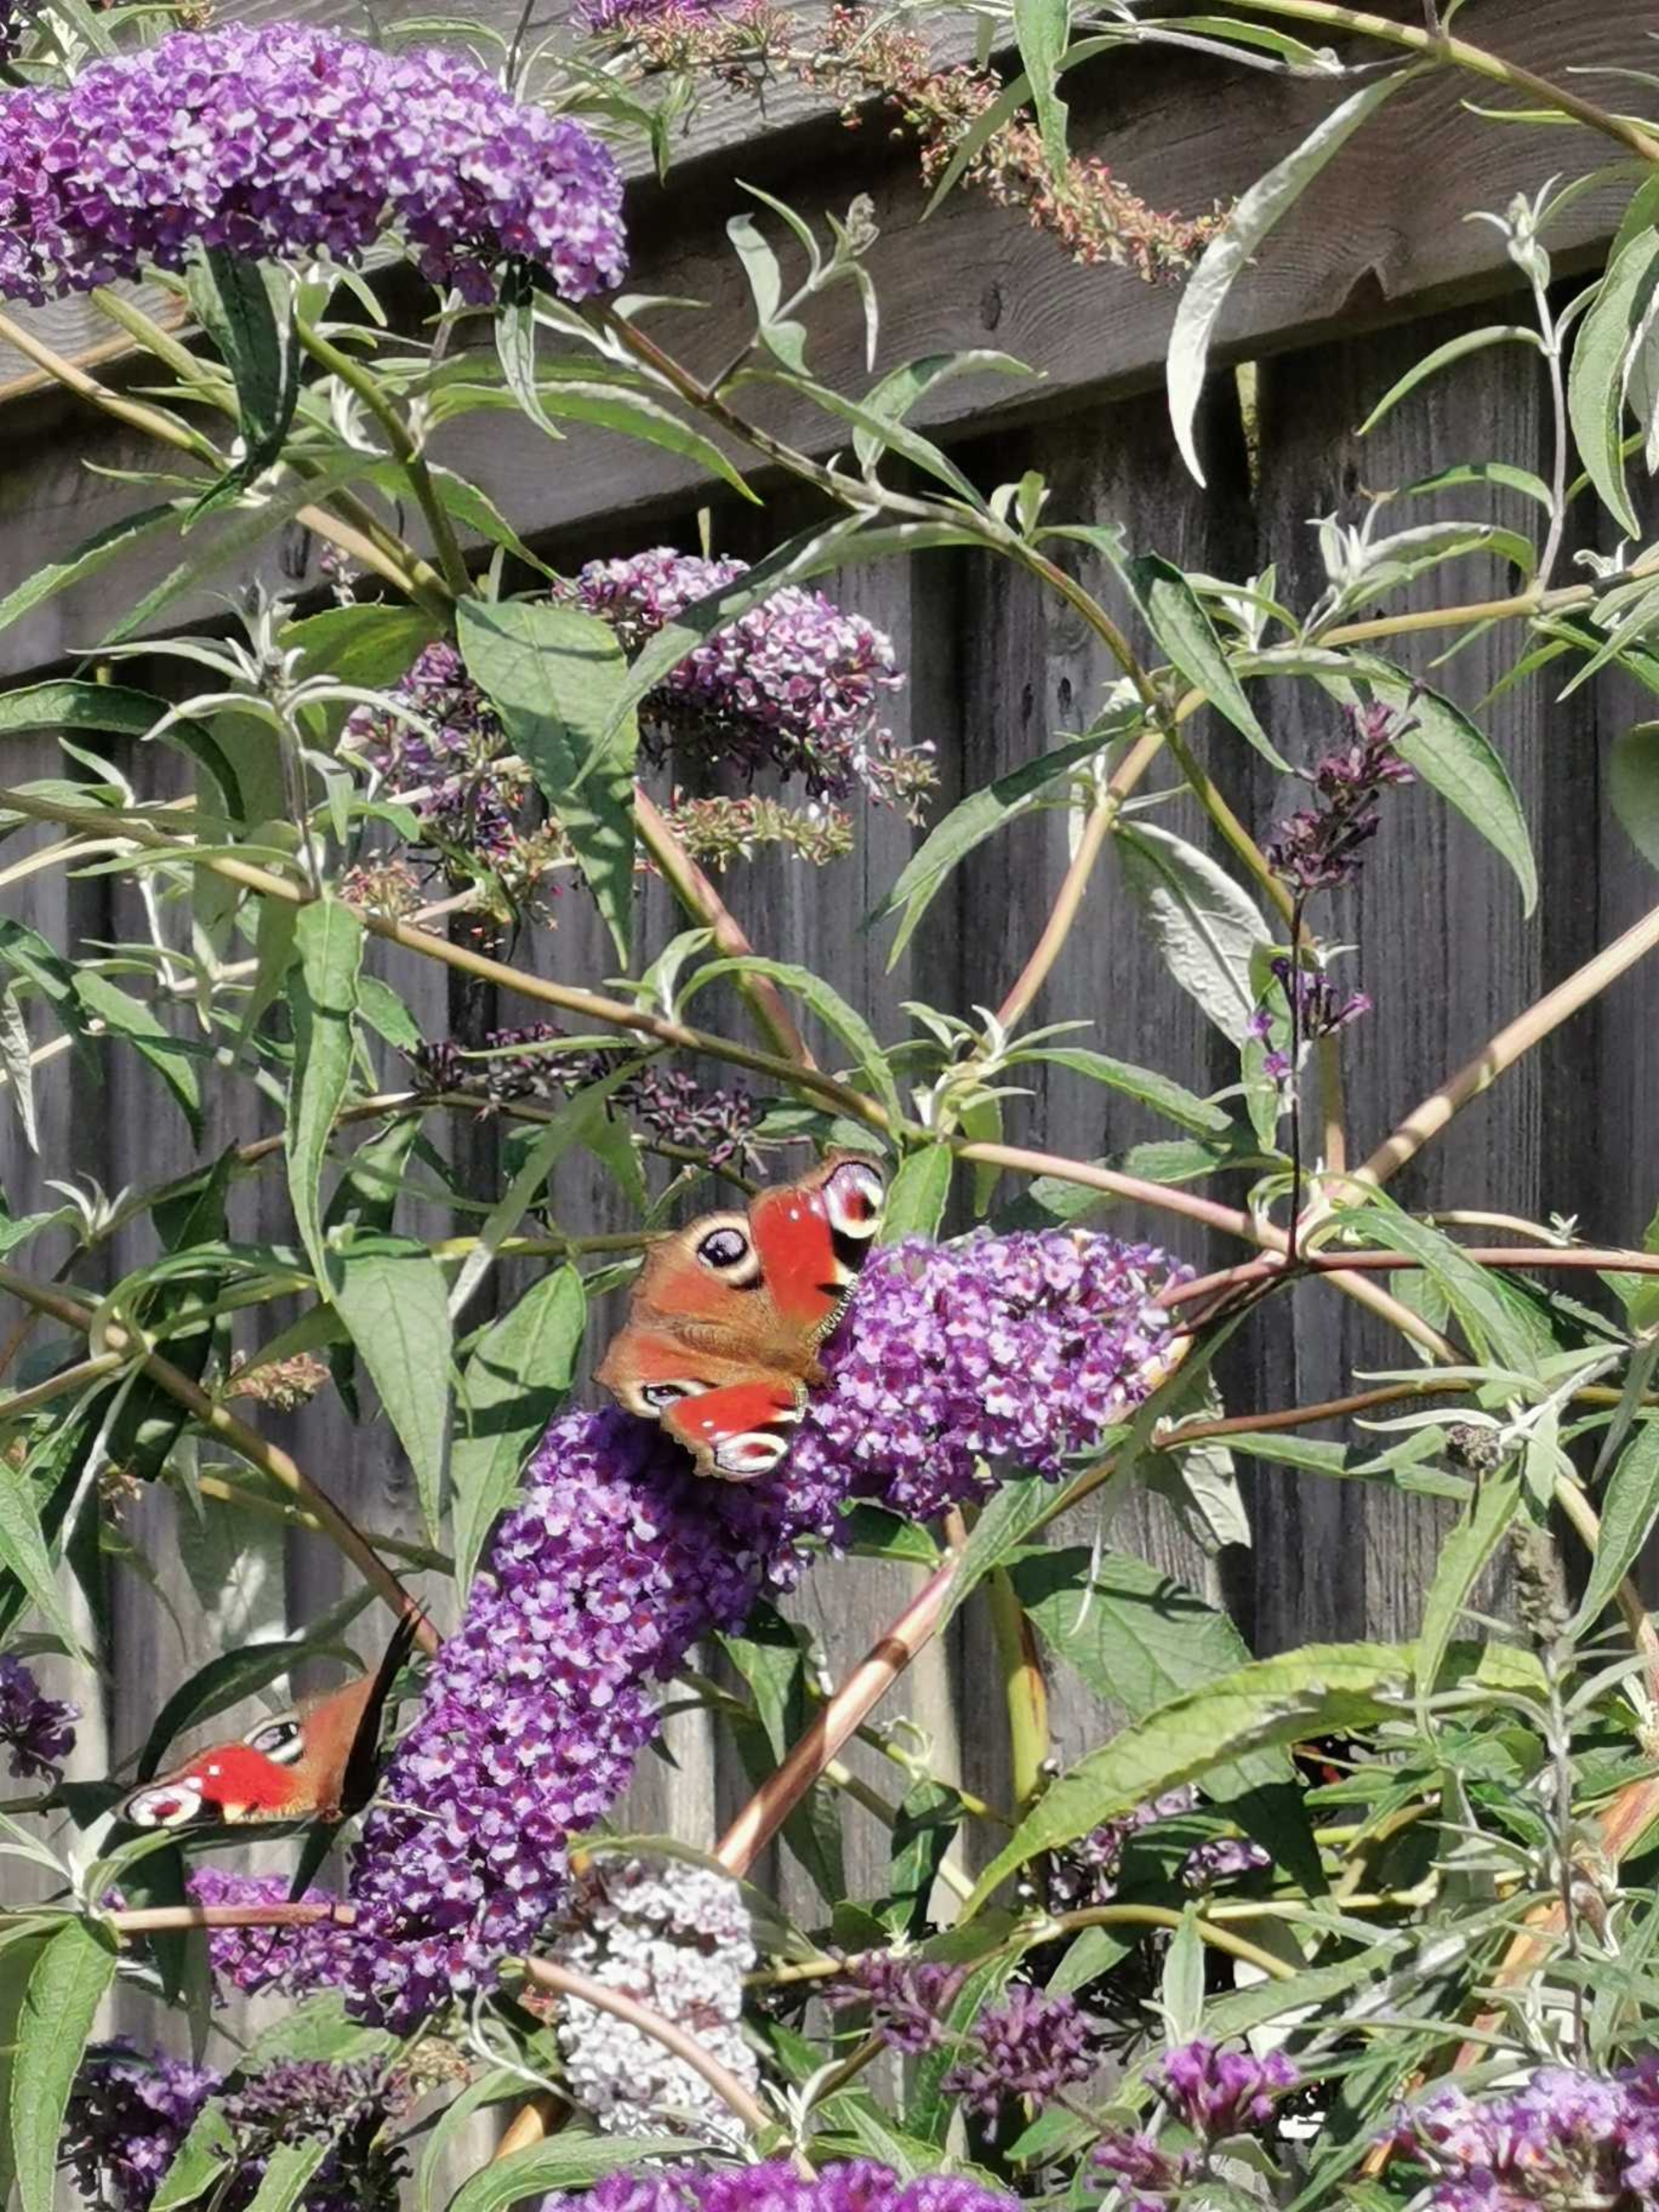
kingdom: Animalia
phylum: Arthropoda
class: Insecta
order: Lepidoptera
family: Nymphalidae
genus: Aglais
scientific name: Aglais io
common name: Dagpåfugleøje
